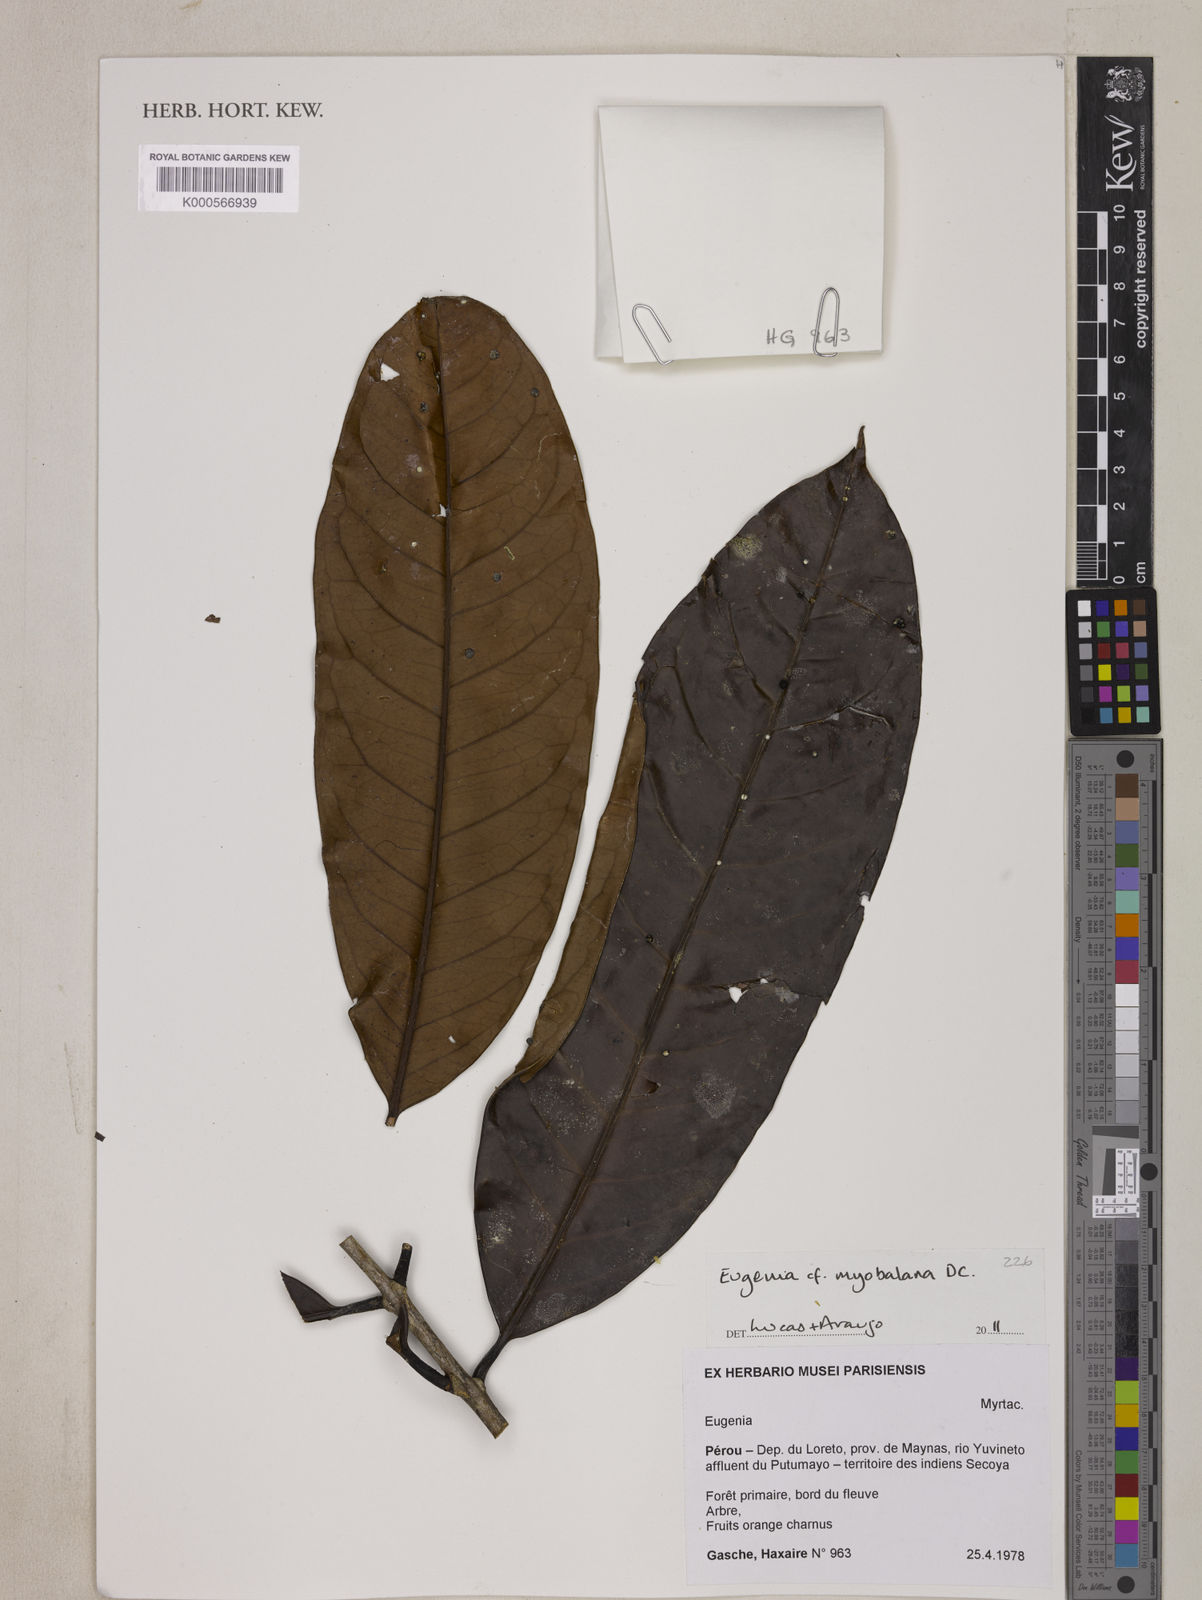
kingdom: Plantae
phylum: Tracheophyta
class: Magnoliopsida
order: Myrtales
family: Myrtaceae
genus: Eugenia
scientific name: Eugenia
